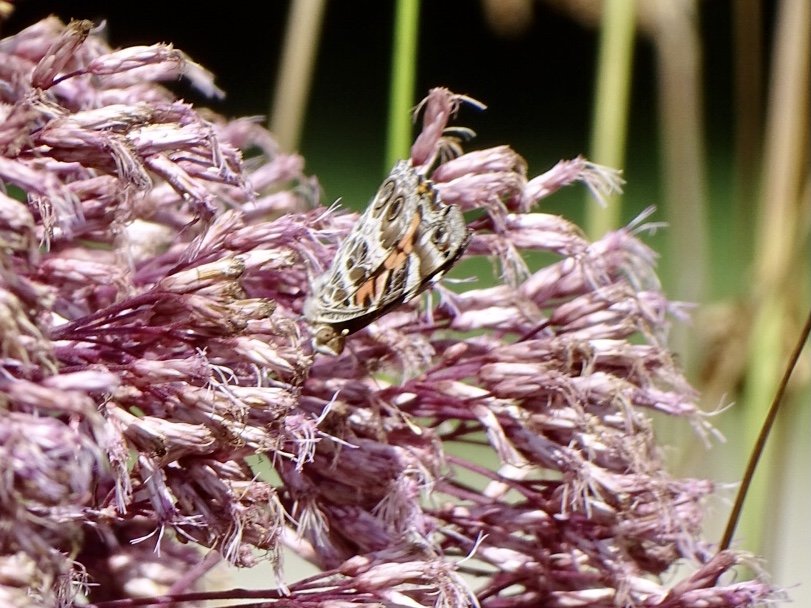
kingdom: Animalia
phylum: Arthropoda
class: Insecta
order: Lepidoptera
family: Nymphalidae
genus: Vanessa
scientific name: Vanessa virginiensis
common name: American Lady
